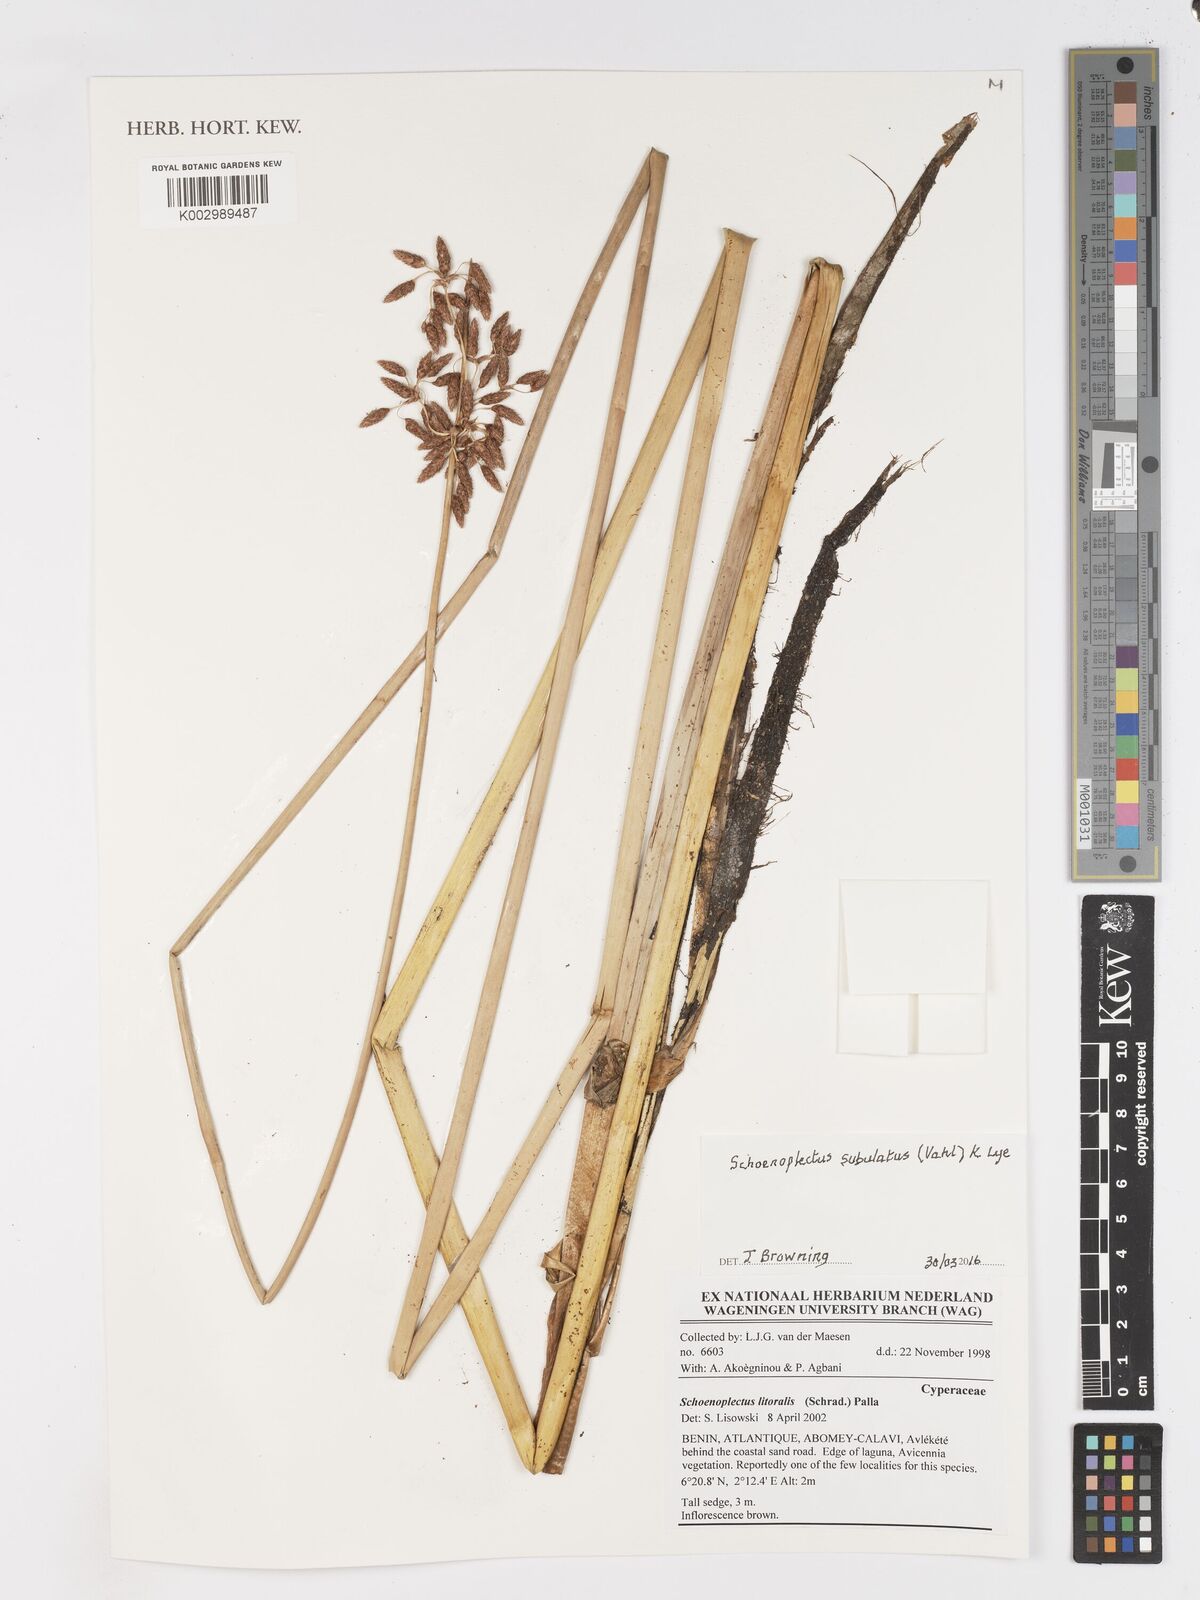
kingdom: Plantae
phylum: Tracheophyta
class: Liliopsida
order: Poales
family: Cyperaceae
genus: Schoenoplectus
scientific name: Schoenoplectus subulatus
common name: Coast club-rush
